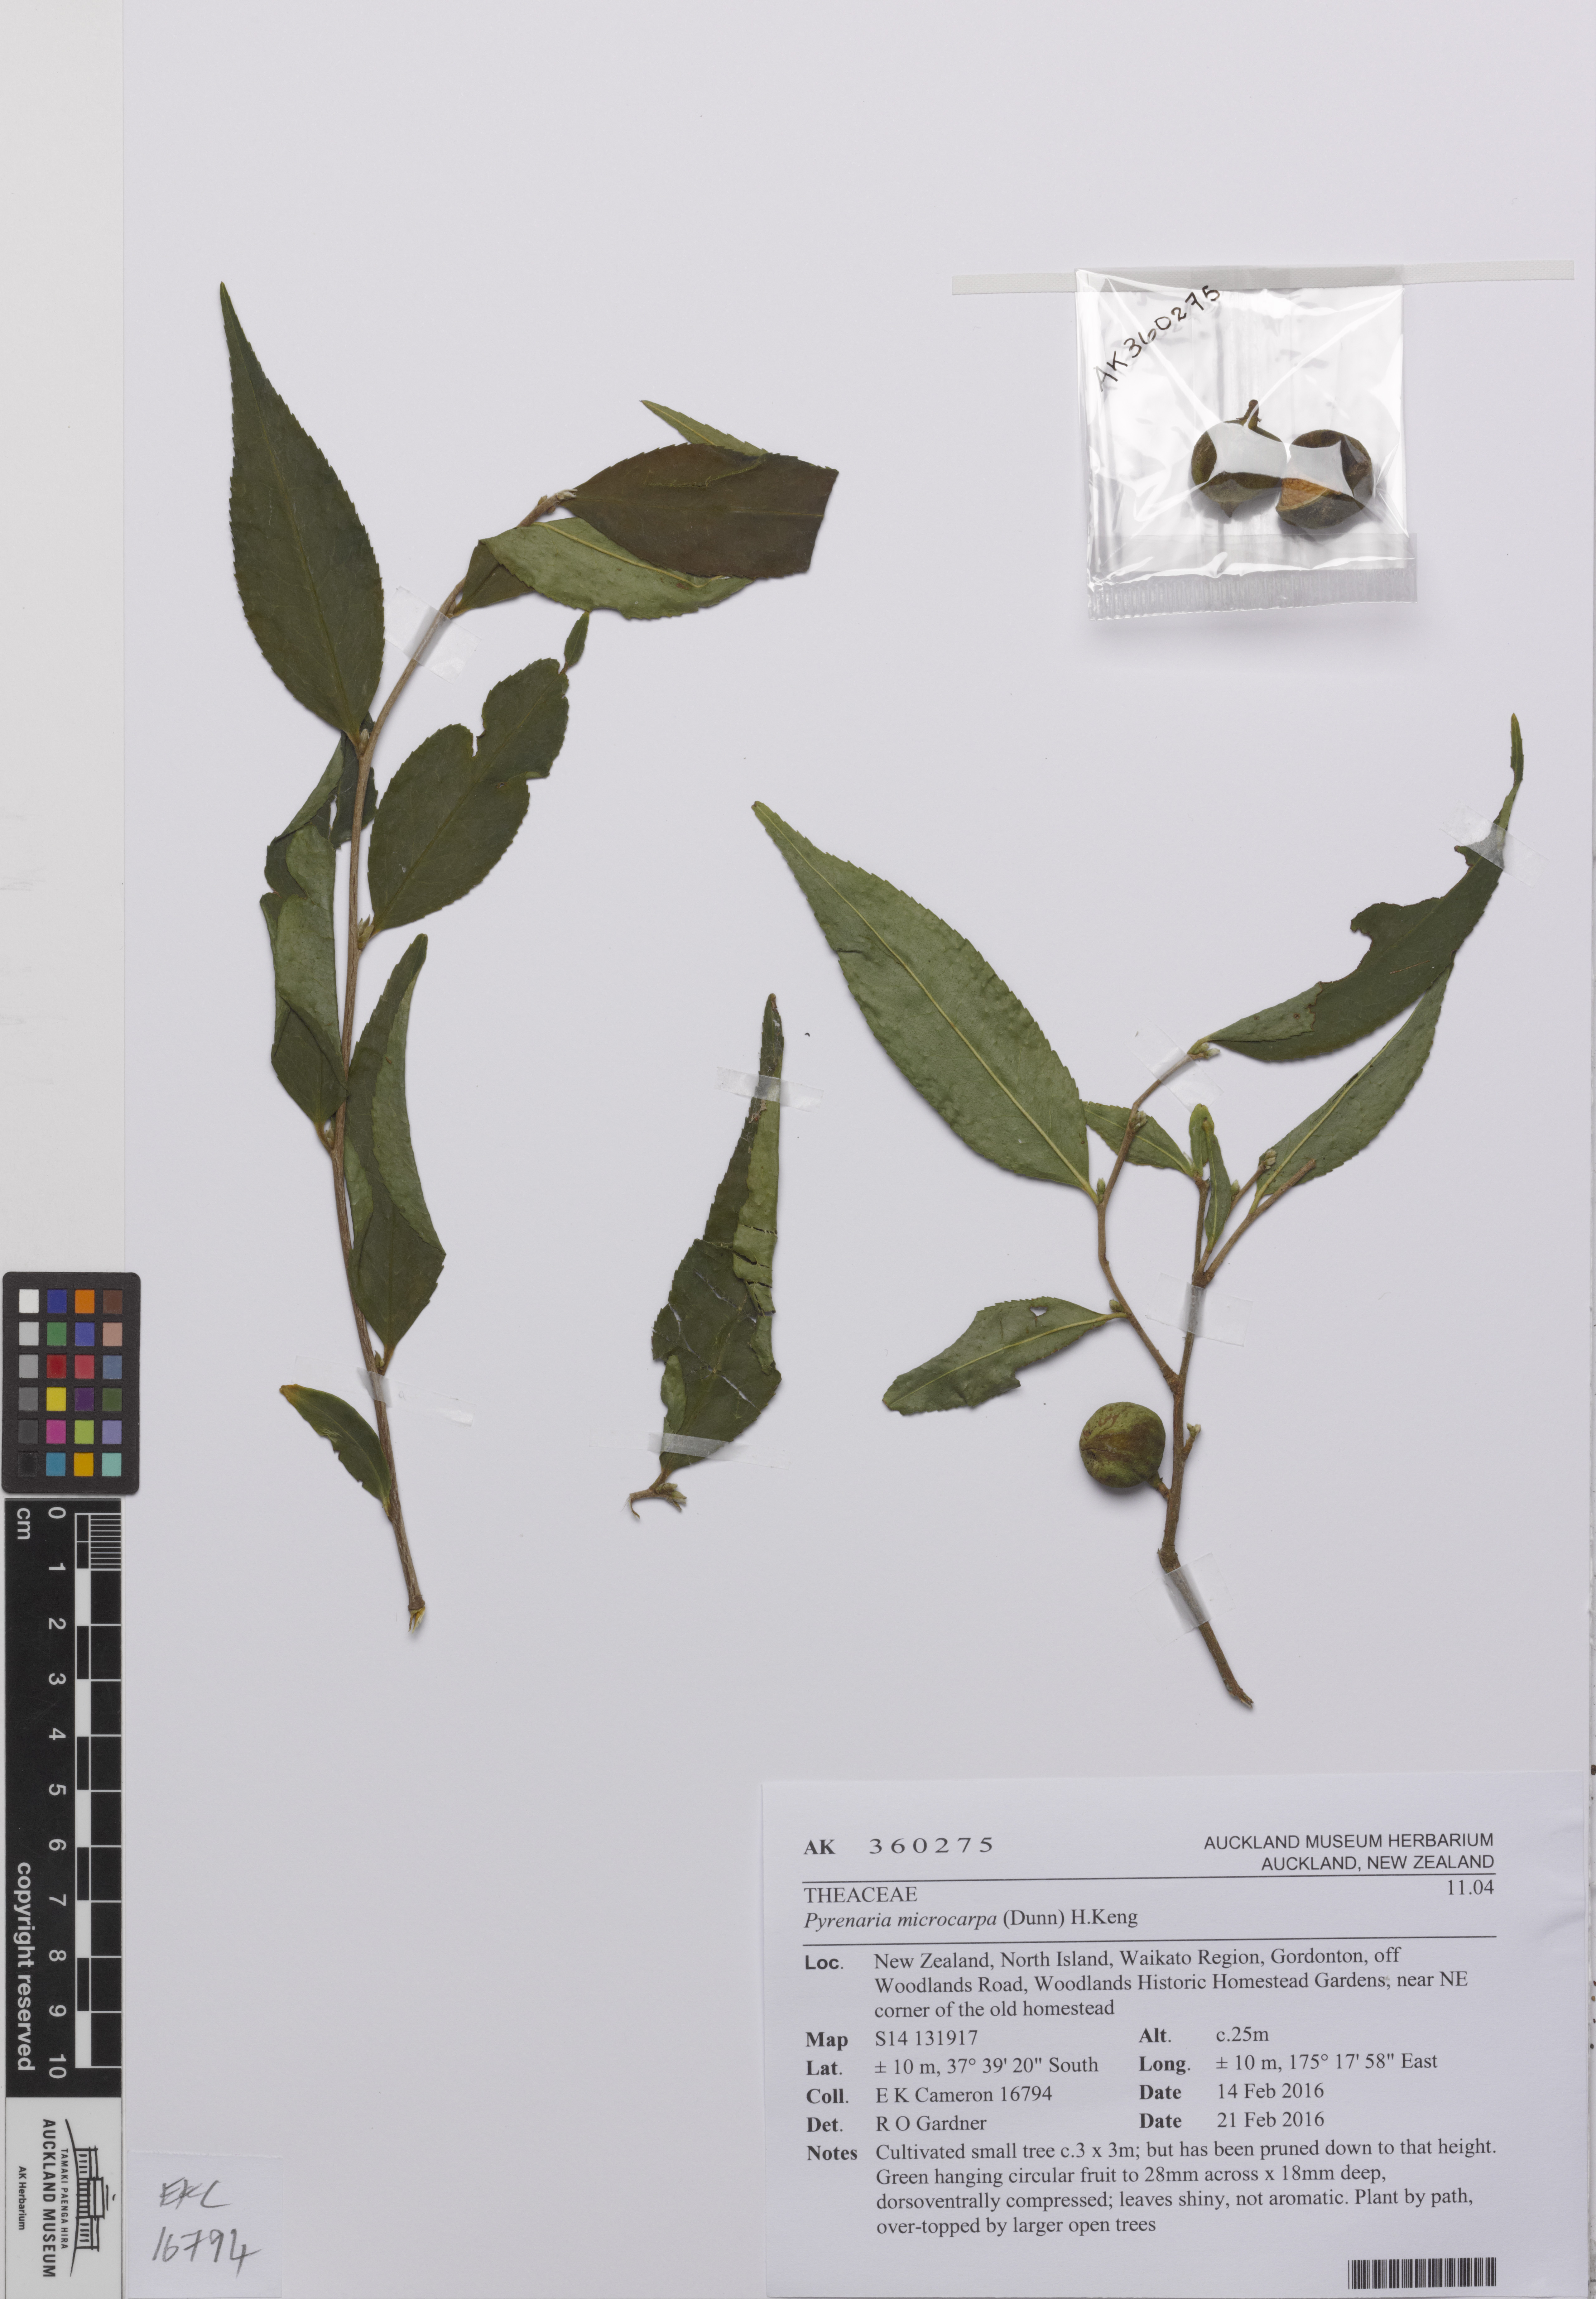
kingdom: Plantae
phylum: Tracheophyta
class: Magnoliopsida
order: Ericales
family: Theaceae
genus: Pyrenaria
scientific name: Pyrenaria microcarpa
